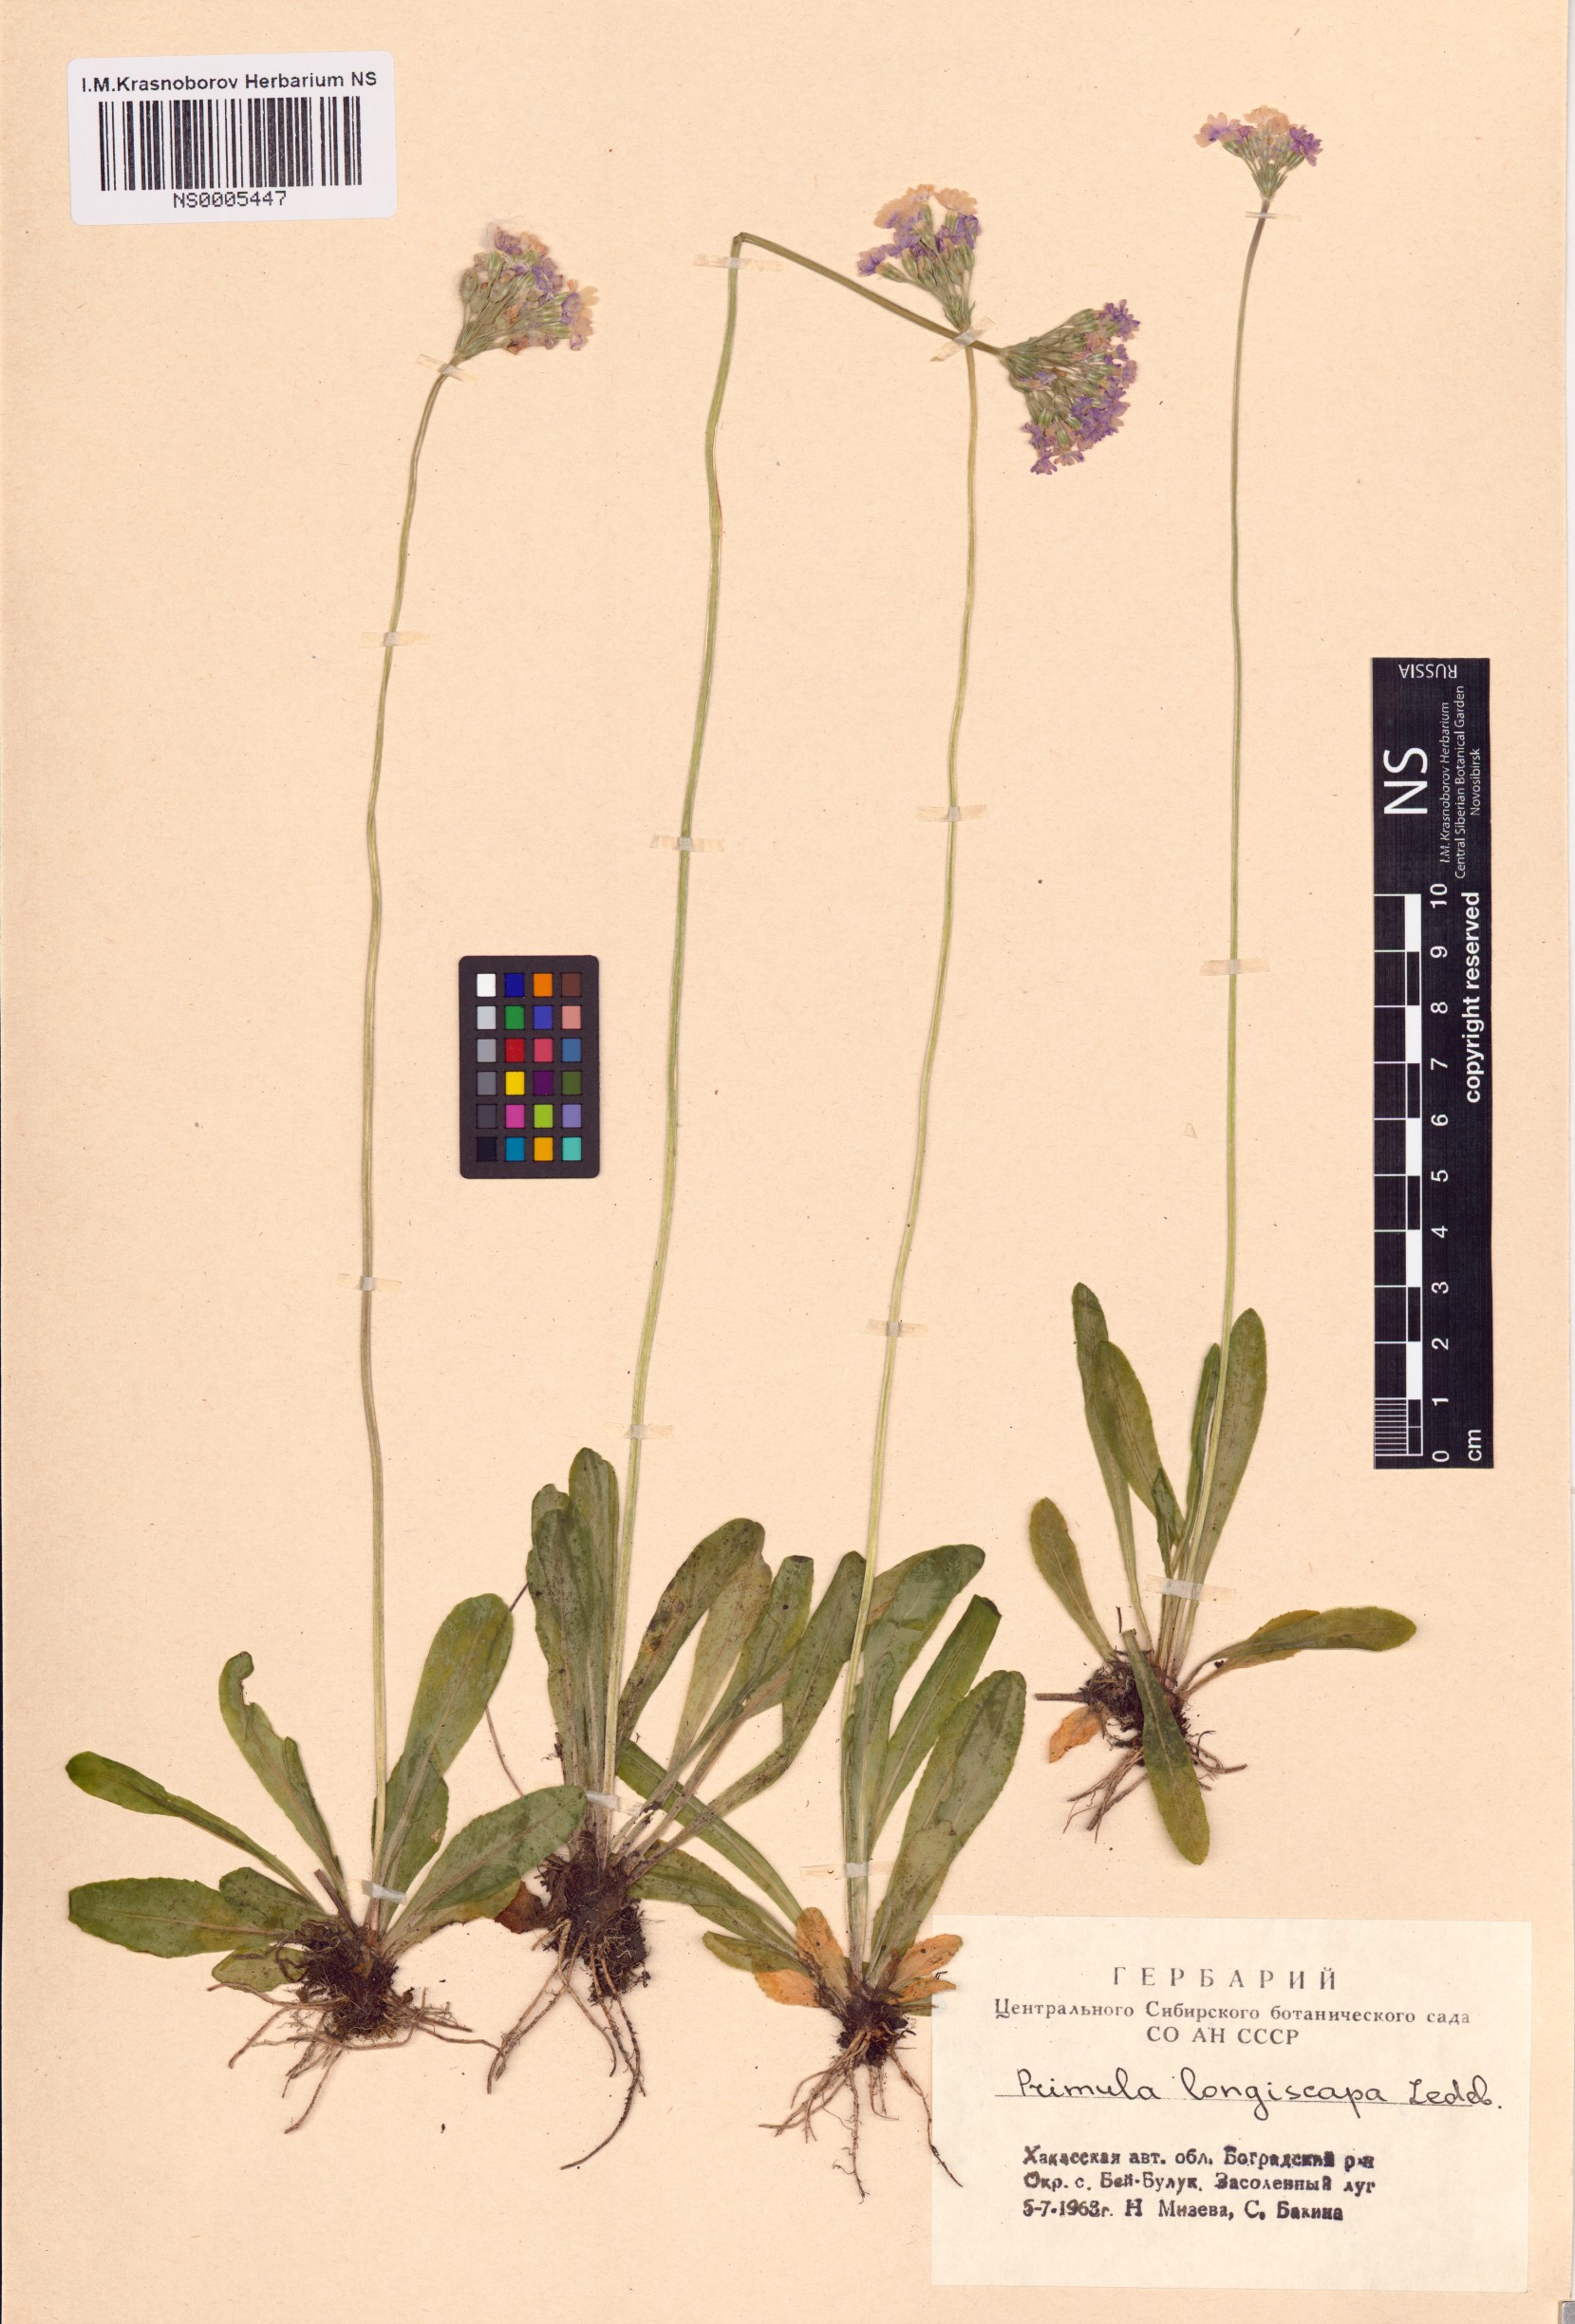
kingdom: Plantae
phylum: Tracheophyta
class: Magnoliopsida
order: Ericales
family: Primulaceae
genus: Primula
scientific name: Primula longiscapa
